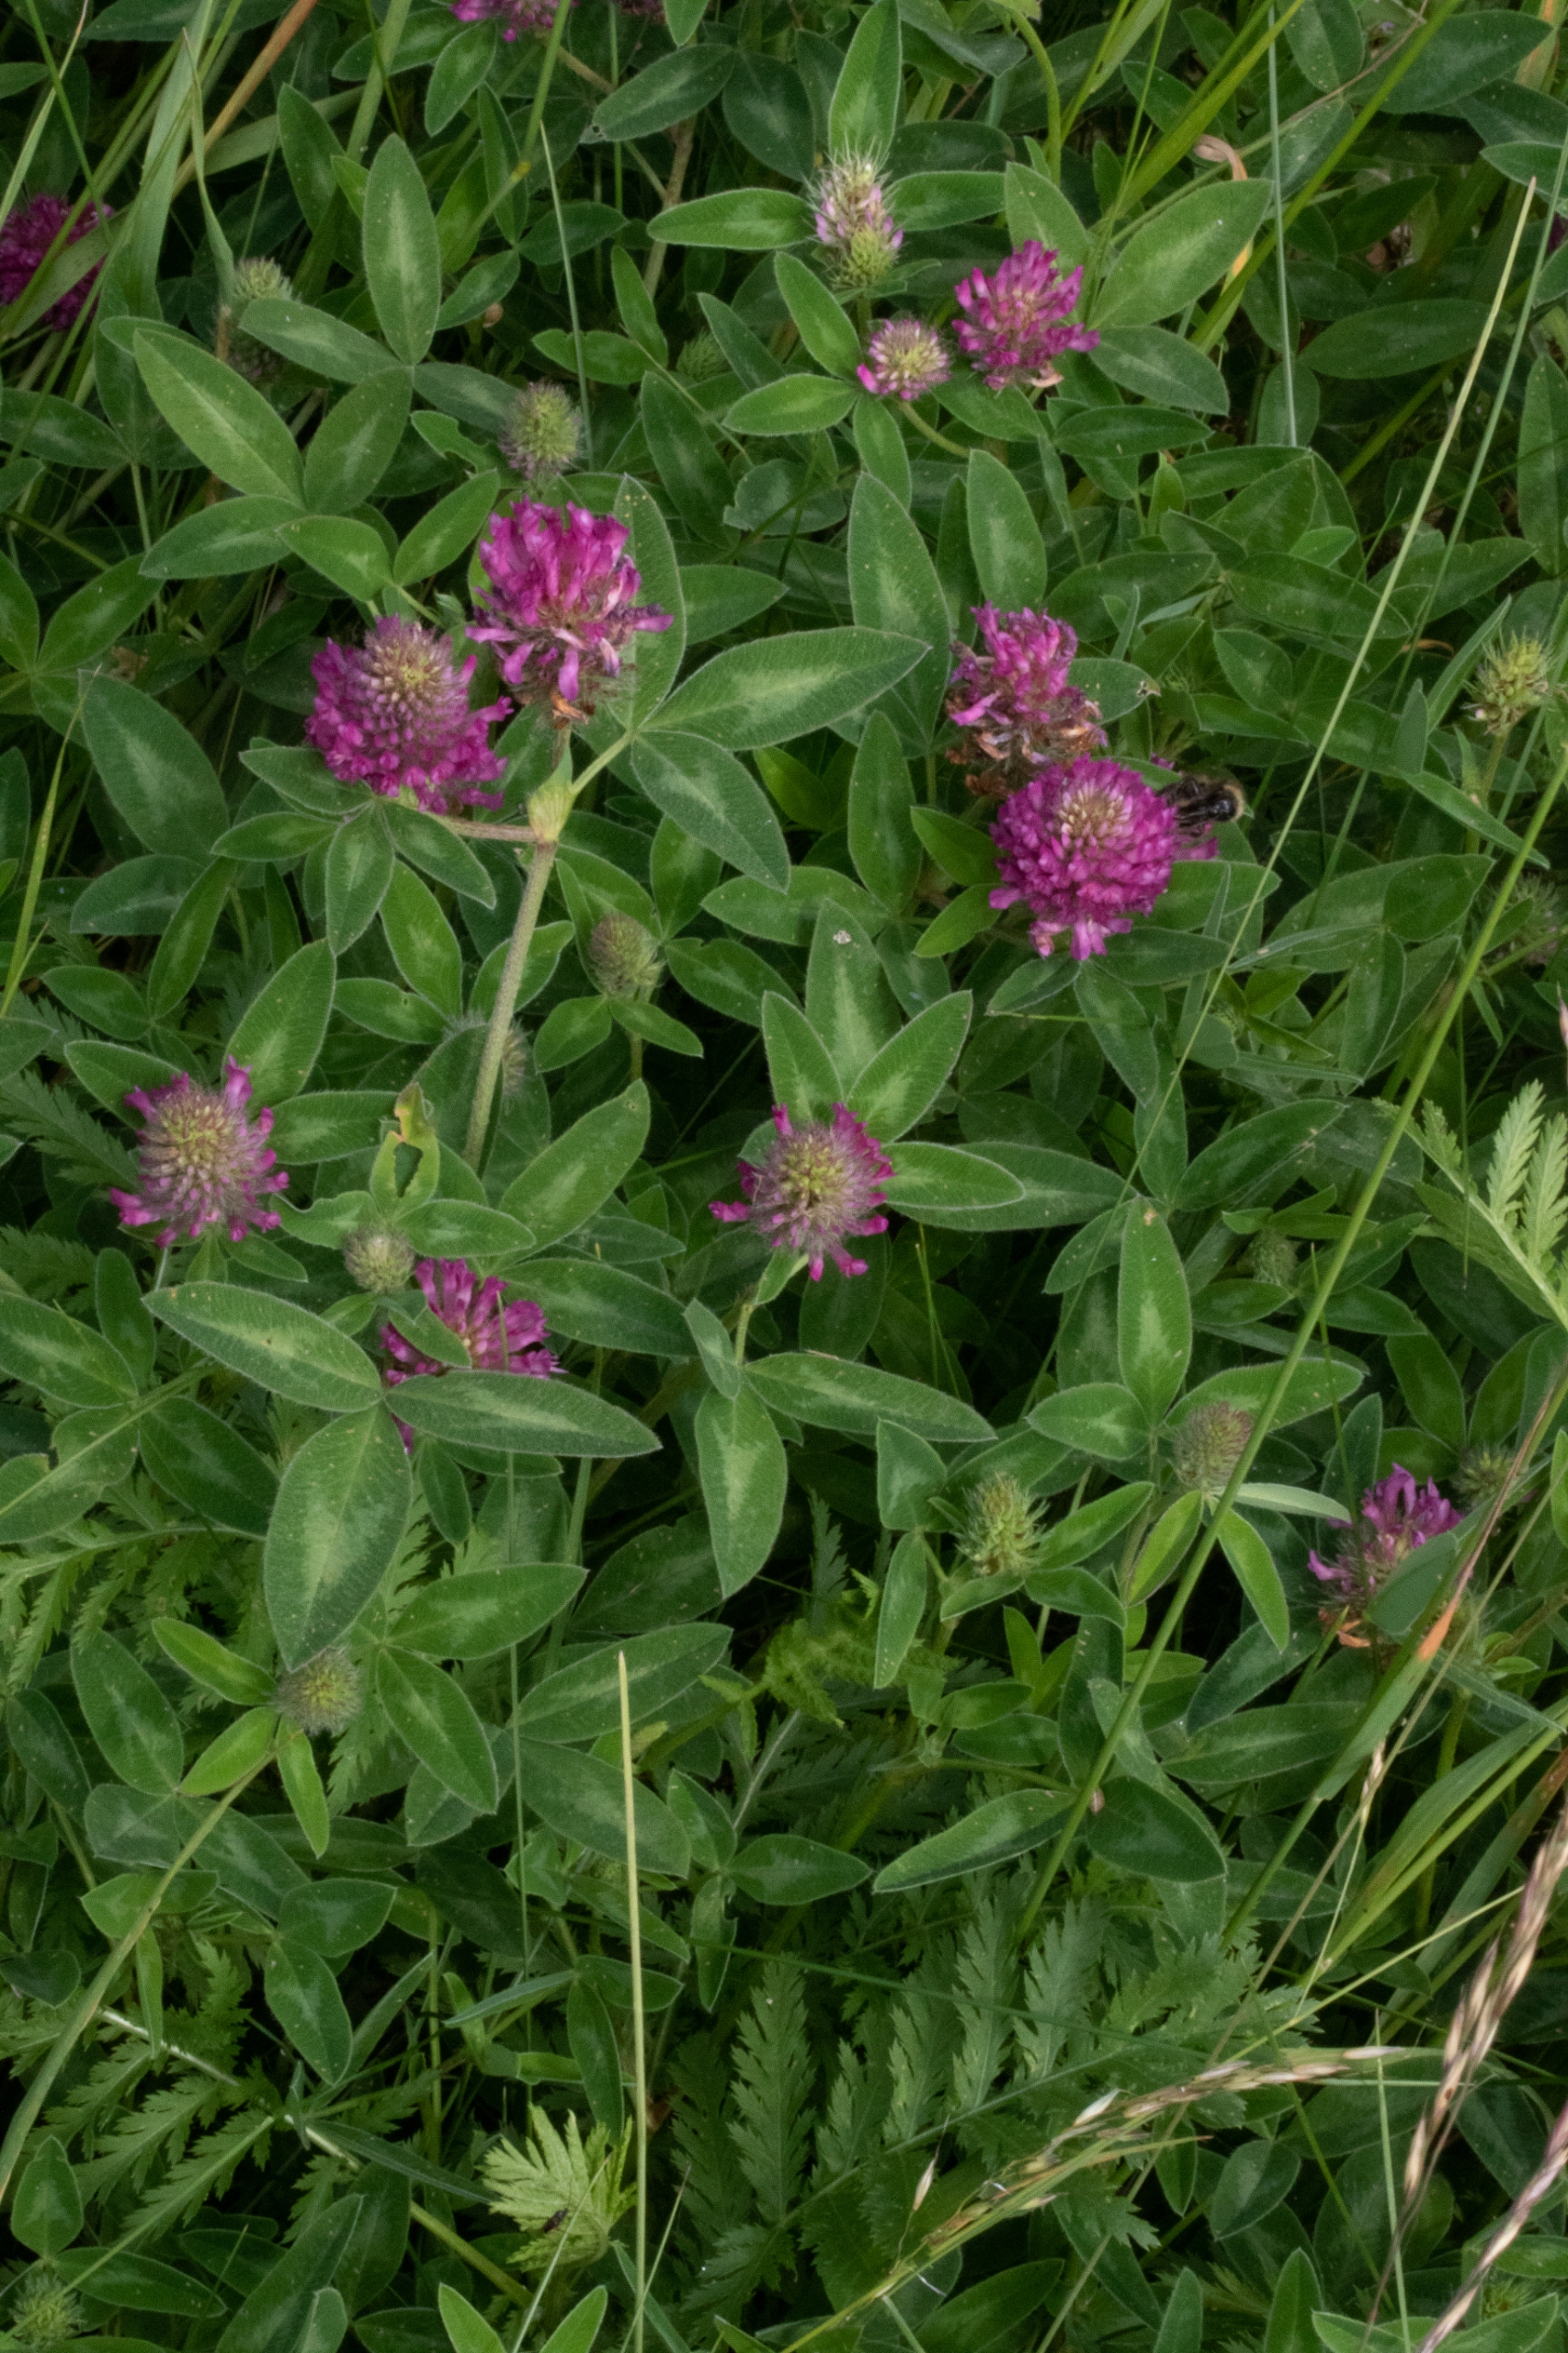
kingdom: Plantae
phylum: Tracheophyta
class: Magnoliopsida
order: Fabales
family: Fabaceae
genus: Trifolium
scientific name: Trifolium medium
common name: Bugtet kløver
